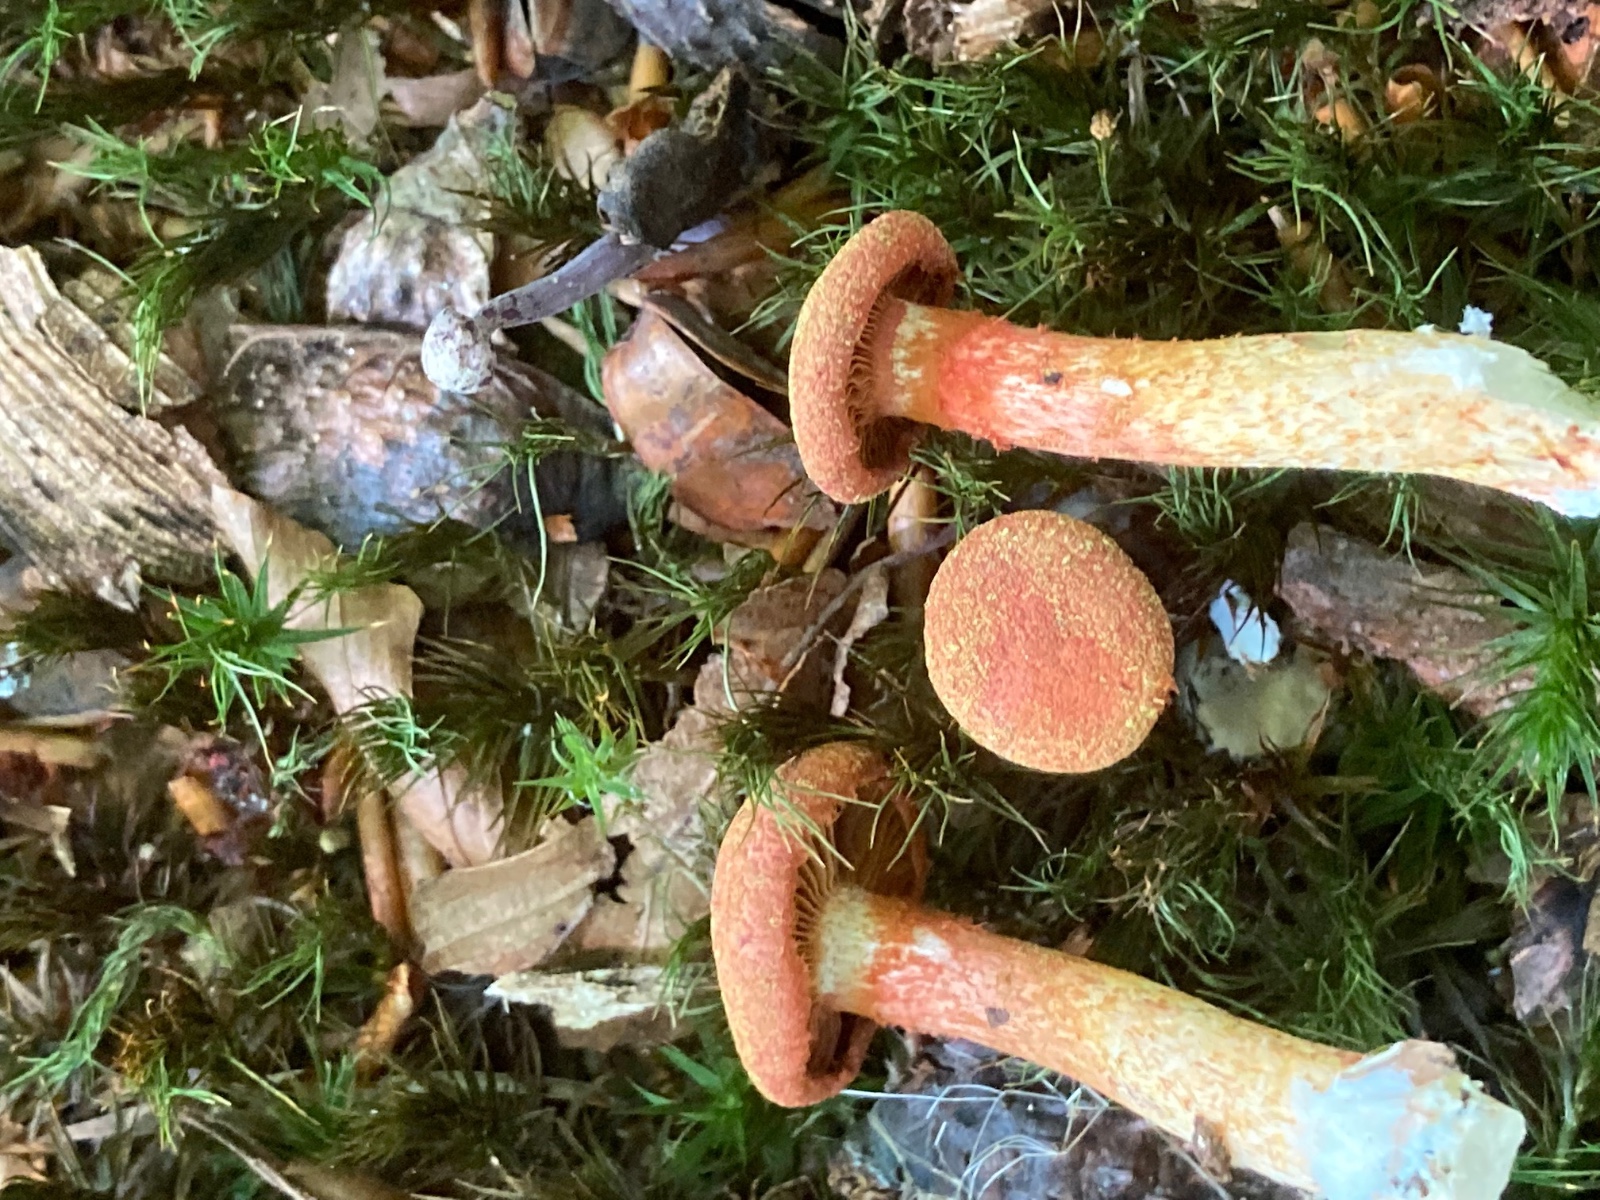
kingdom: Fungi
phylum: Basidiomycota
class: Agaricomycetes
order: Agaricales
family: Cortinariaceae
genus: Cortinarius
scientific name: Cortinarius bolaris
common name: cinnoberskællet slørhat
